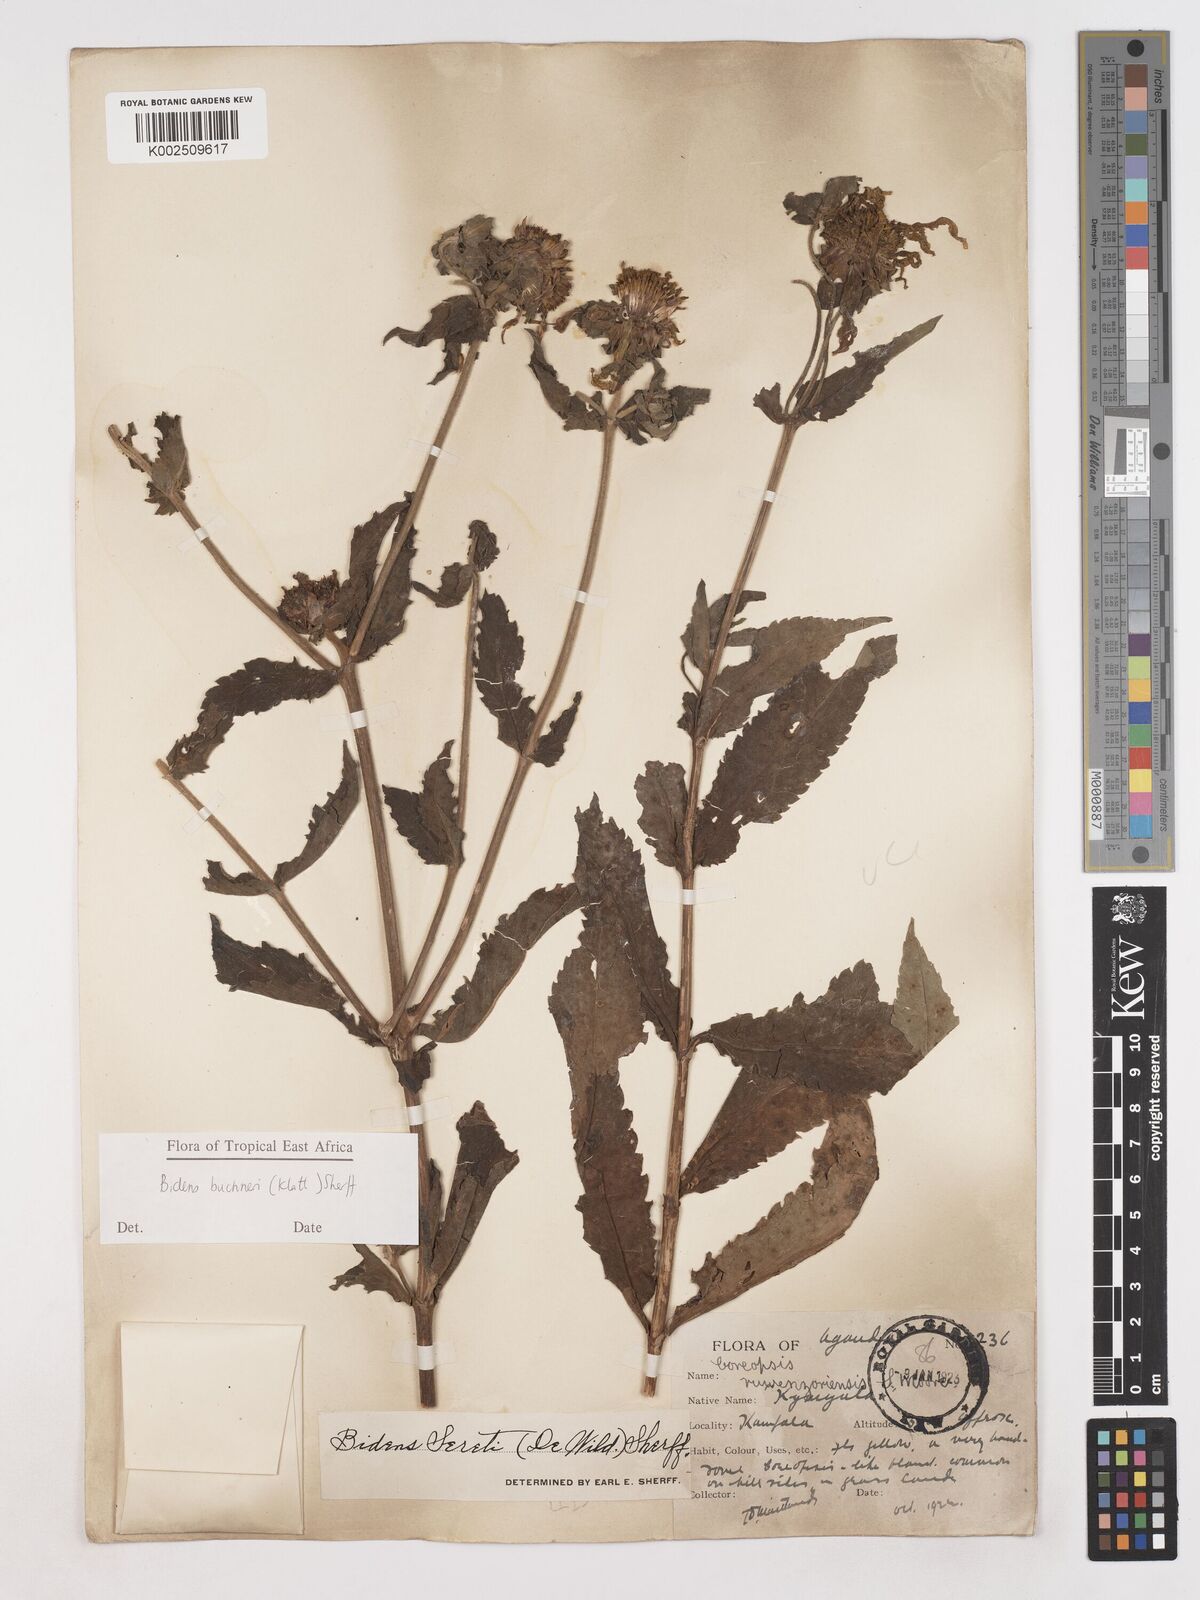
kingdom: Plantae
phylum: Tracheophyta
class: Magnoliopsida
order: Asterales
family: Asteraceae
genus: Bidens
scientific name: Bidens buchneri
